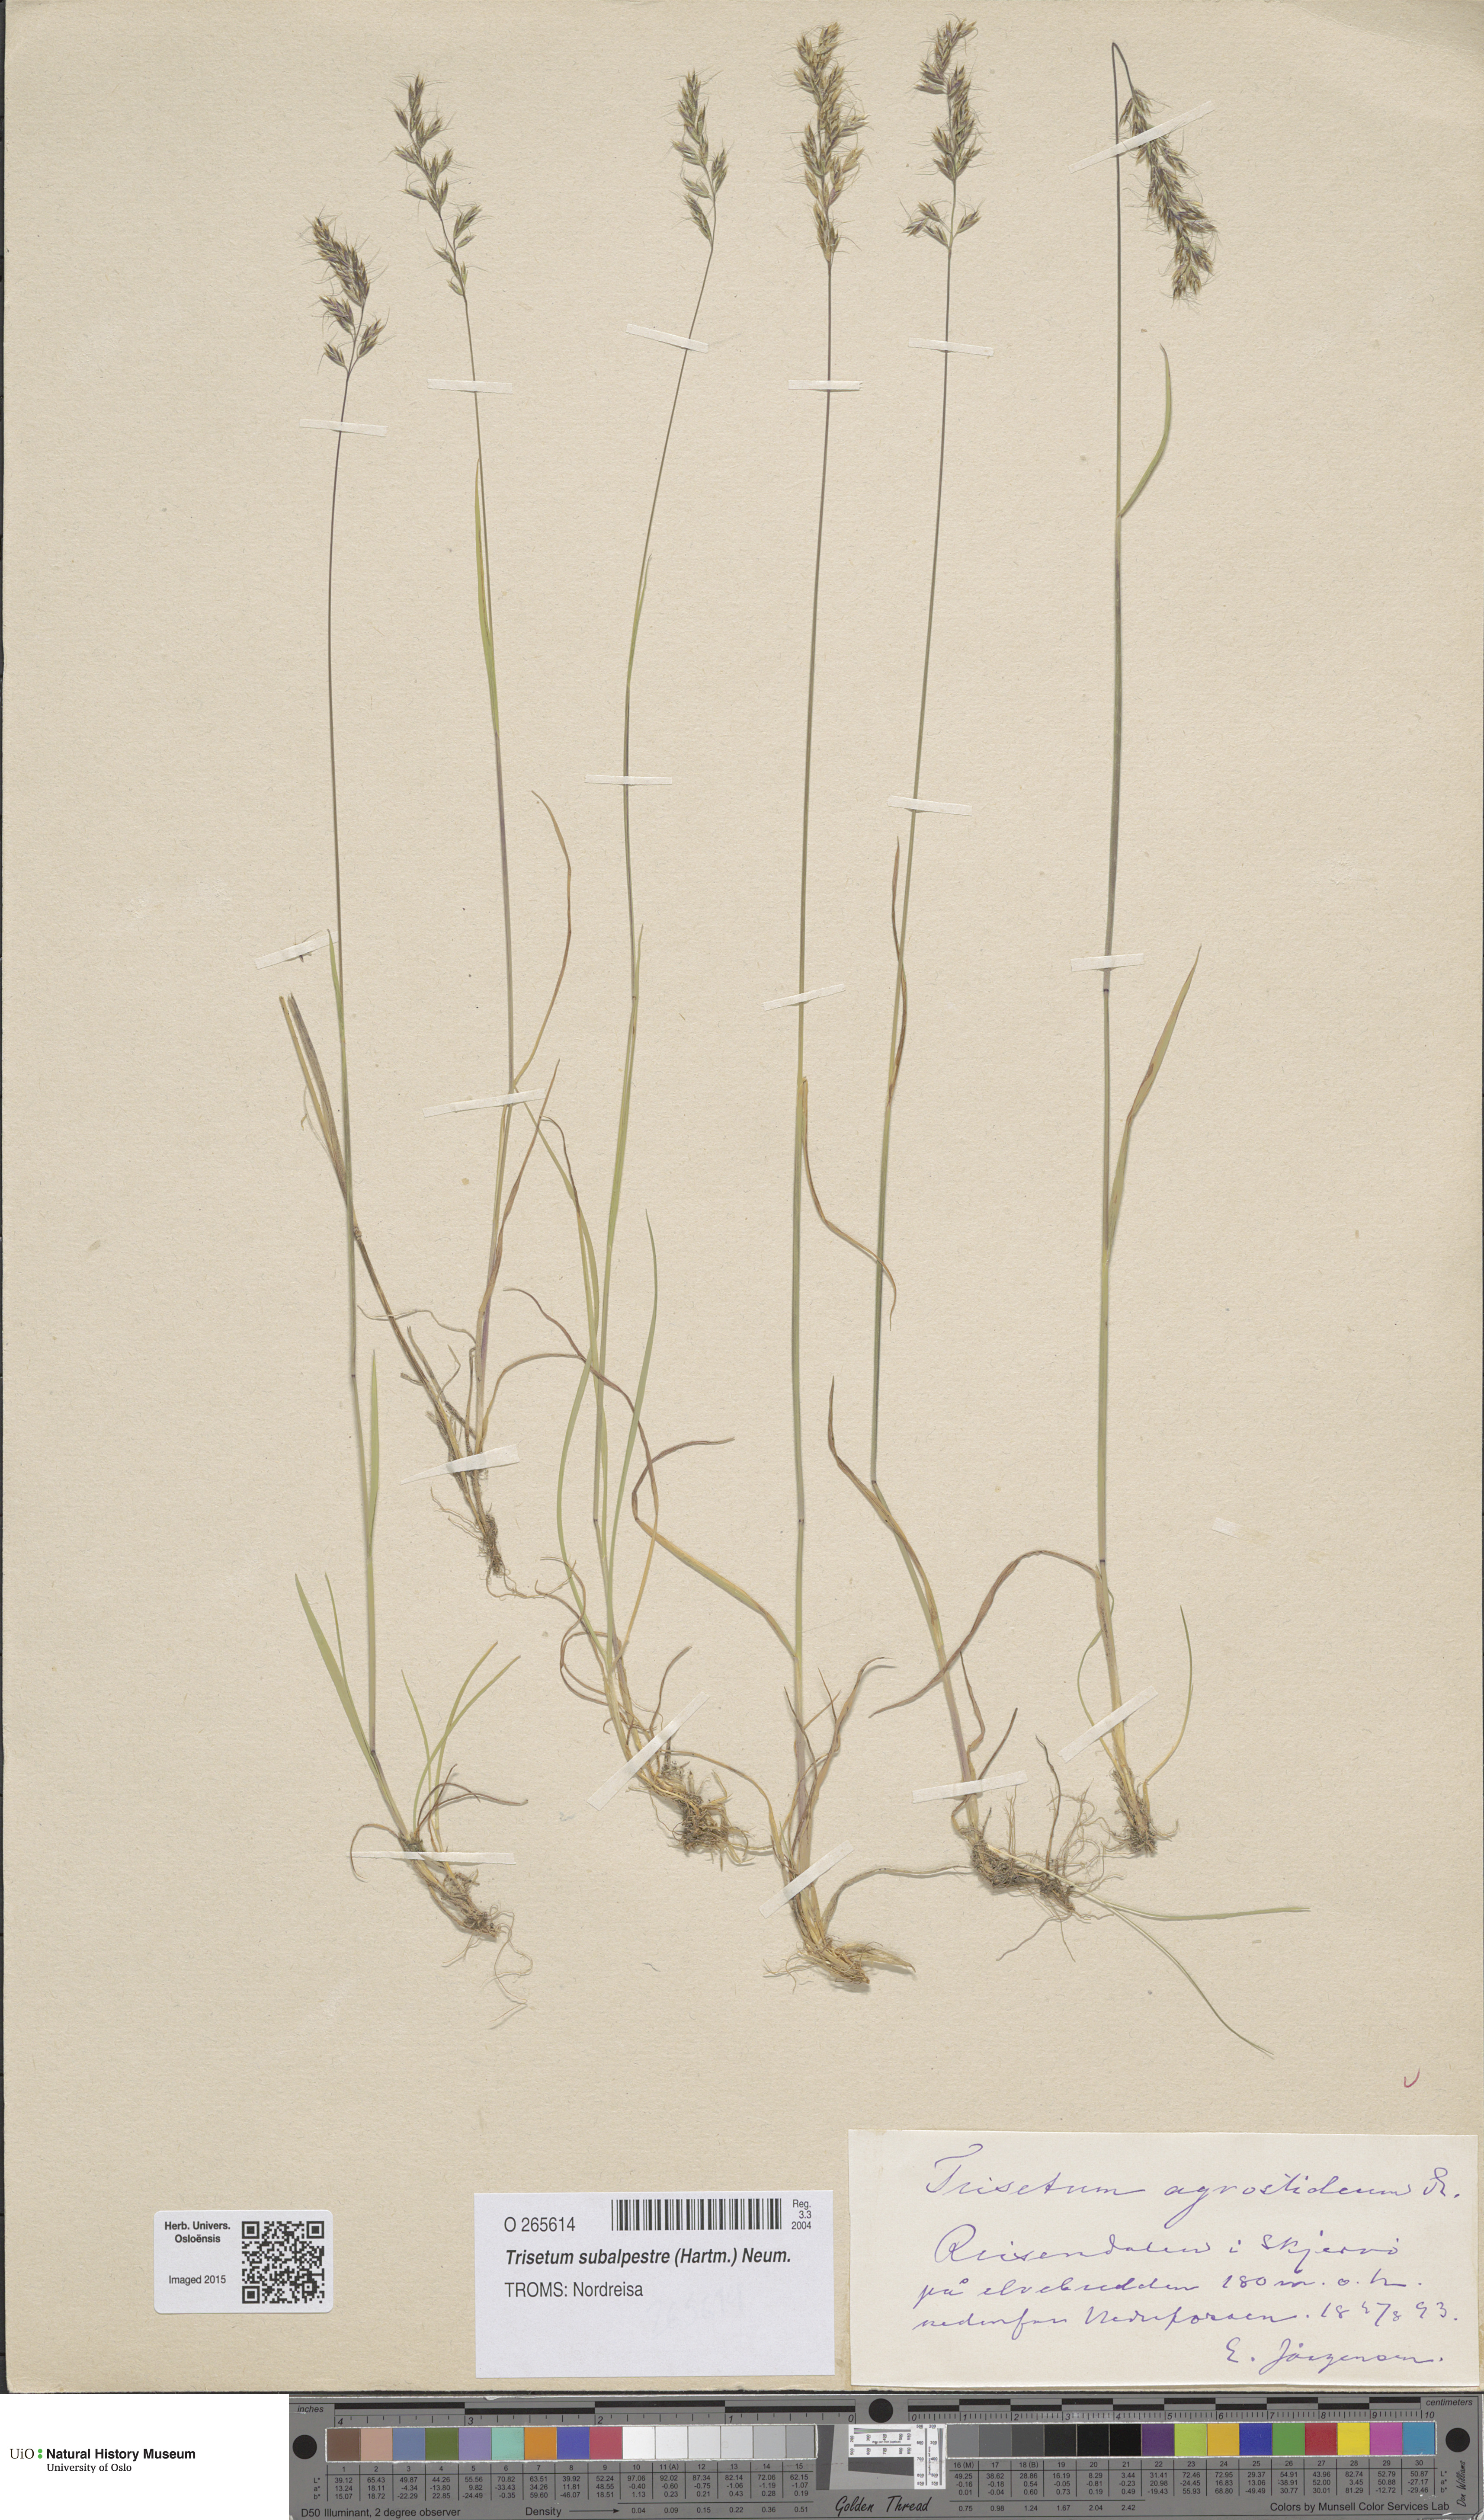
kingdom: Plantae
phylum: Tracheophyta
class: Liliopsida
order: Poales
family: Poaceae
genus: Koeleria
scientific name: Koeleria subalpestris
